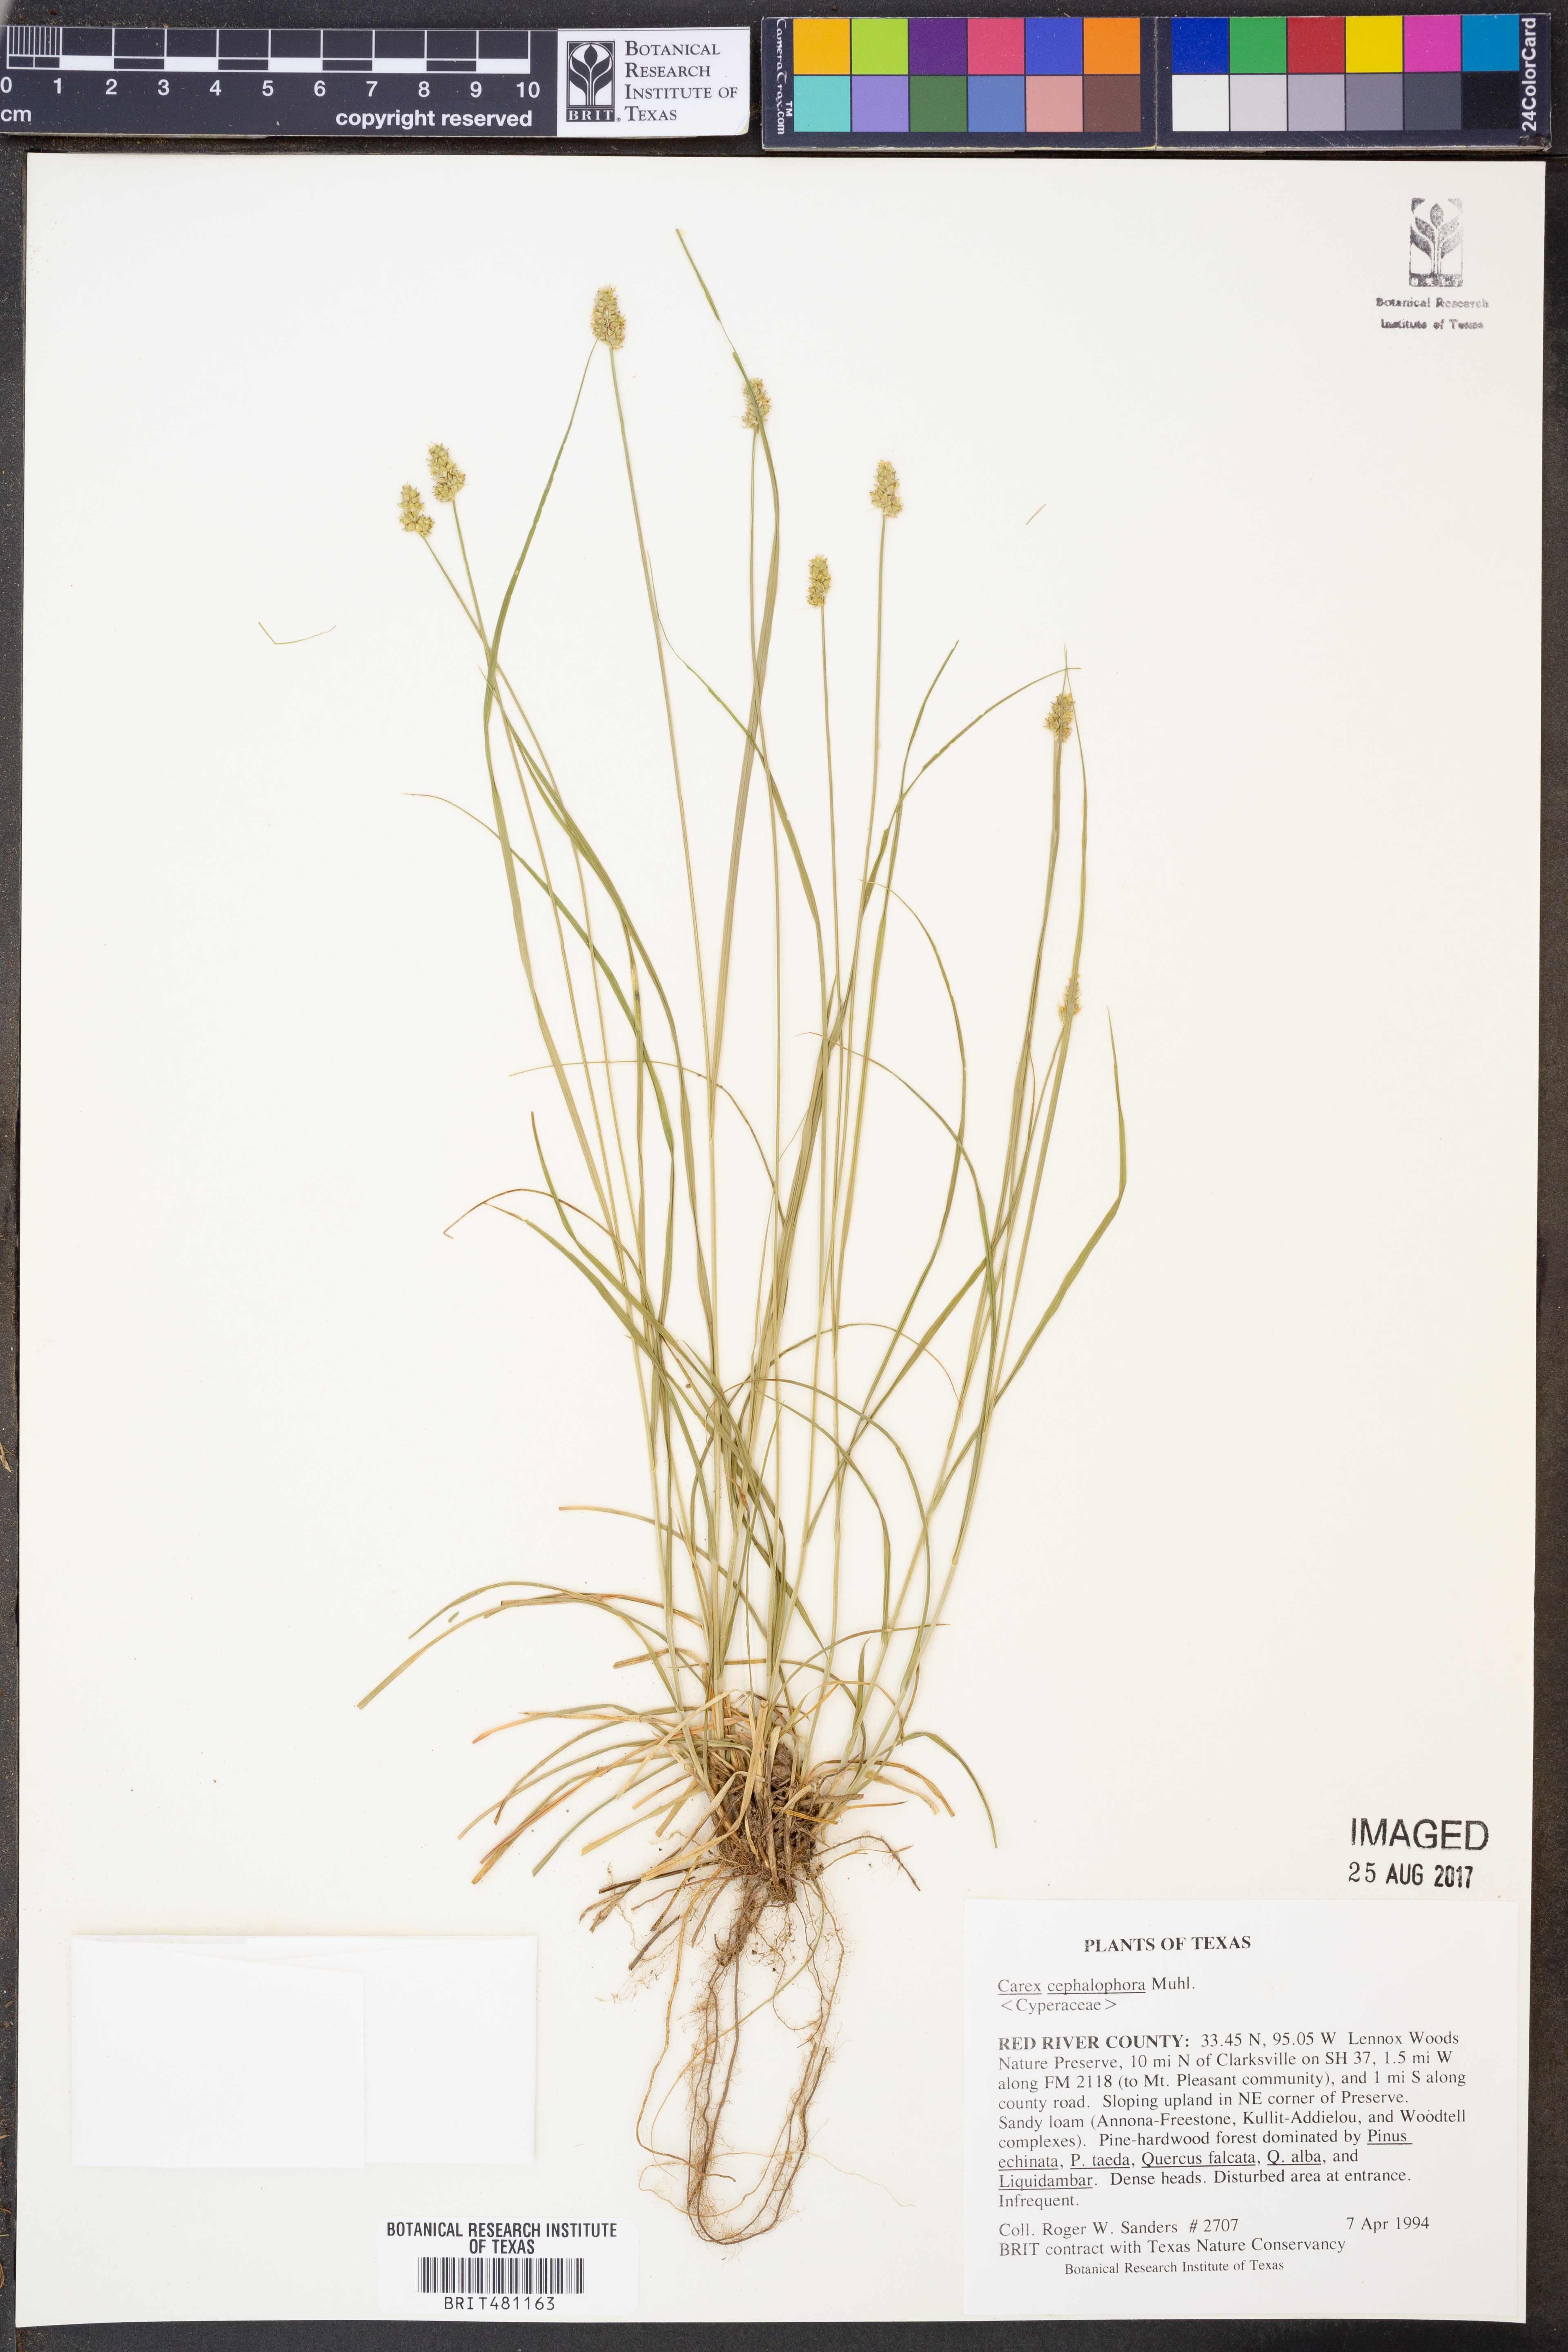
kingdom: Plantae
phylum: Tracheophyta
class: Liliopsida
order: Poales
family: Cyperaceae
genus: Carex
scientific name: Carex cephalophora
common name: Oval-headed sedge
